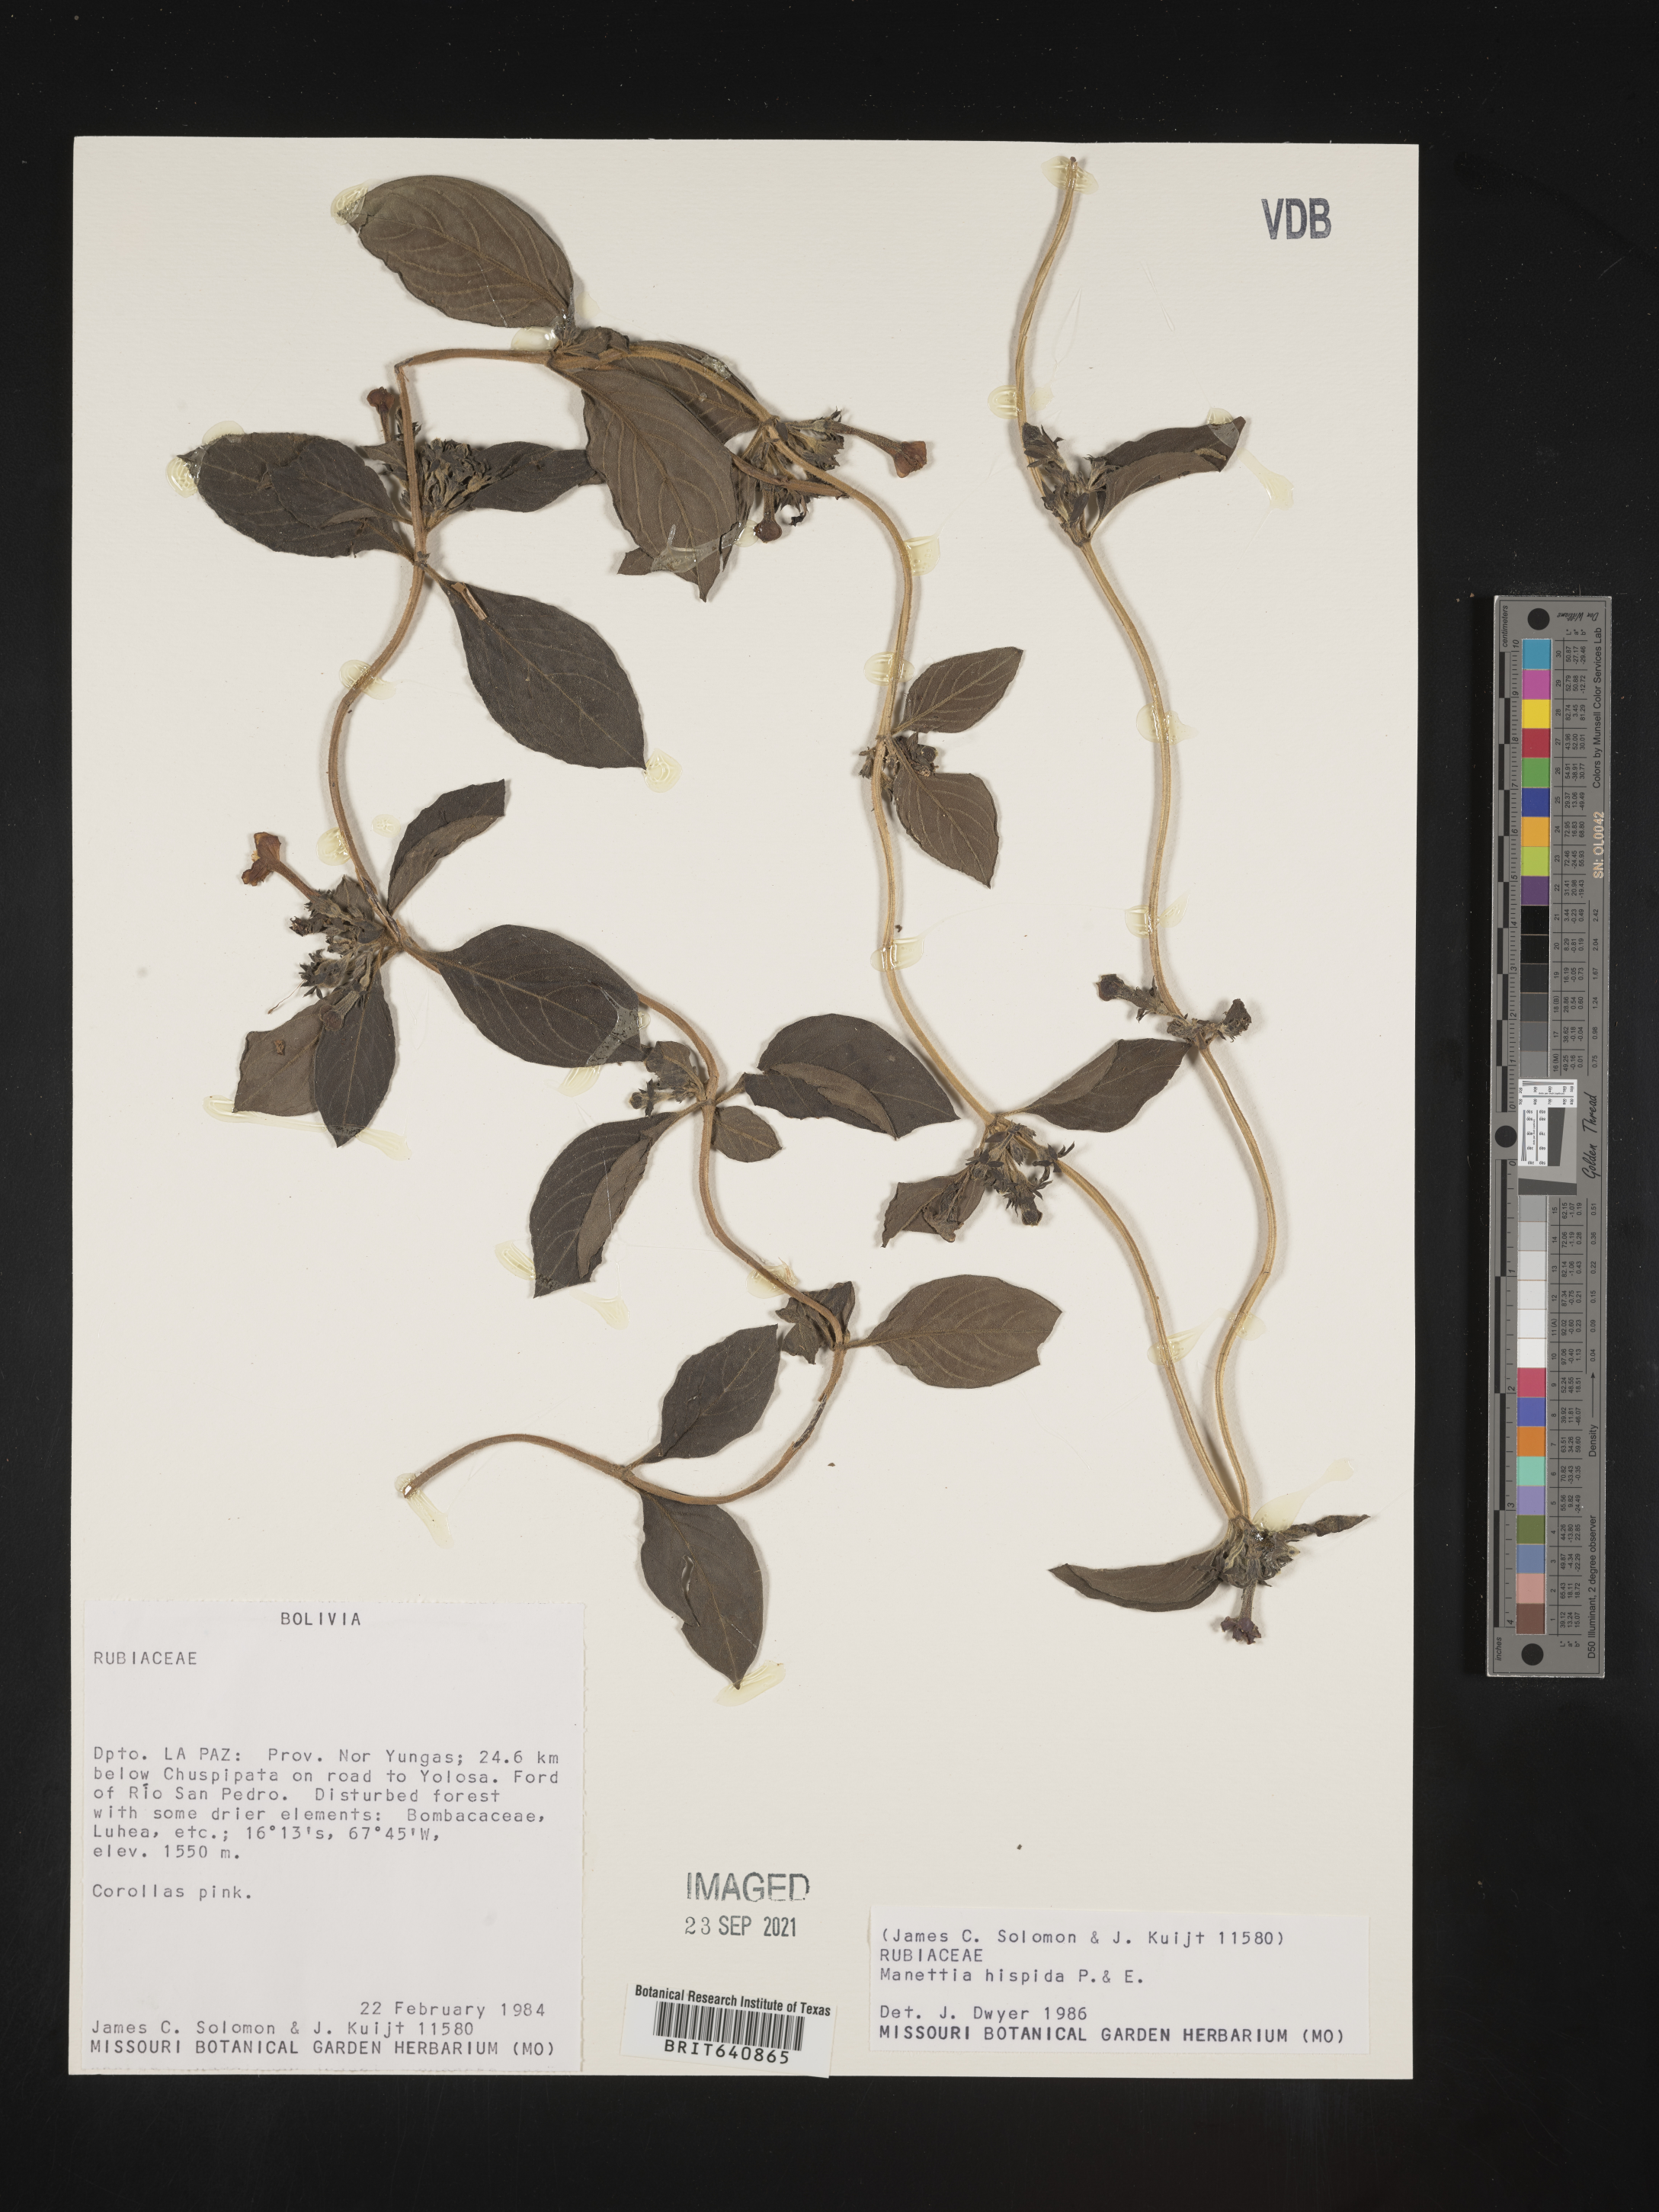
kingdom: Plantae
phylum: Tracheophyta
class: Magnoliopsida
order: Gentianales
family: Rubiaceae
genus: Manettia
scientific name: Manettia
